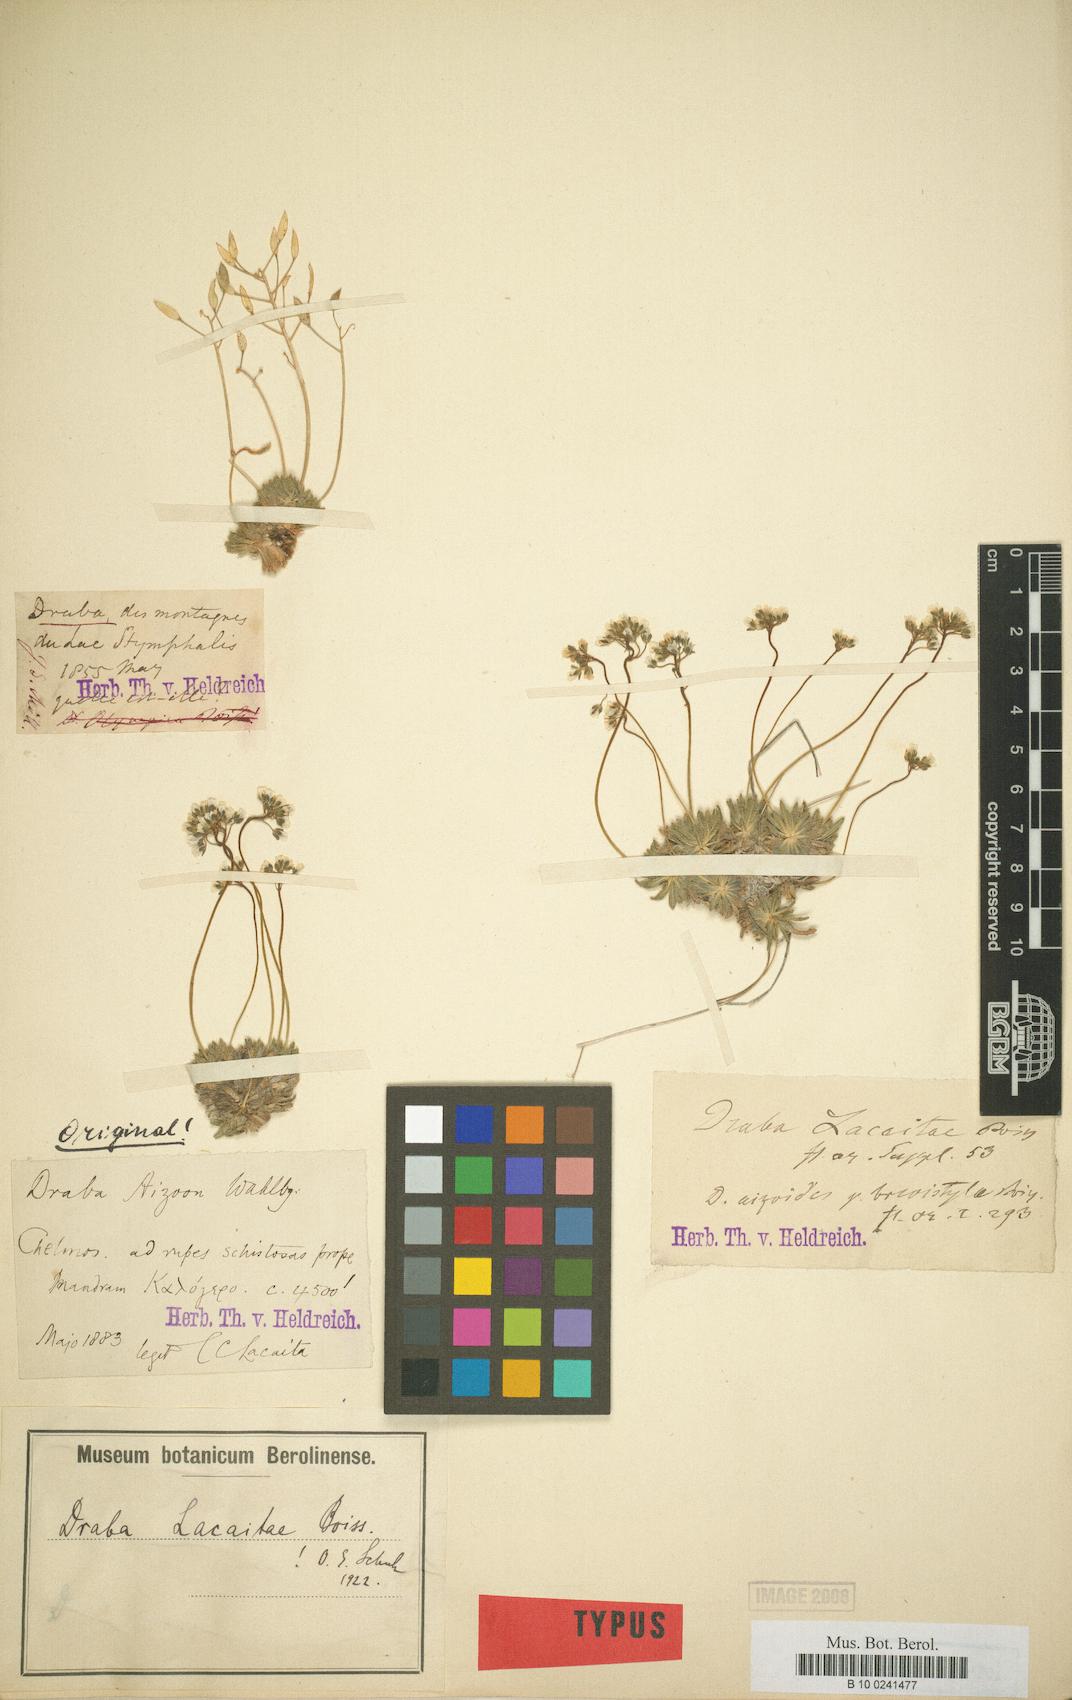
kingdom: Plantae
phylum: Tracheophyta
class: Magnoliopsida
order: Brassicales
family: Brassicaceae
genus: Draba
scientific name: Draba lacaitae
